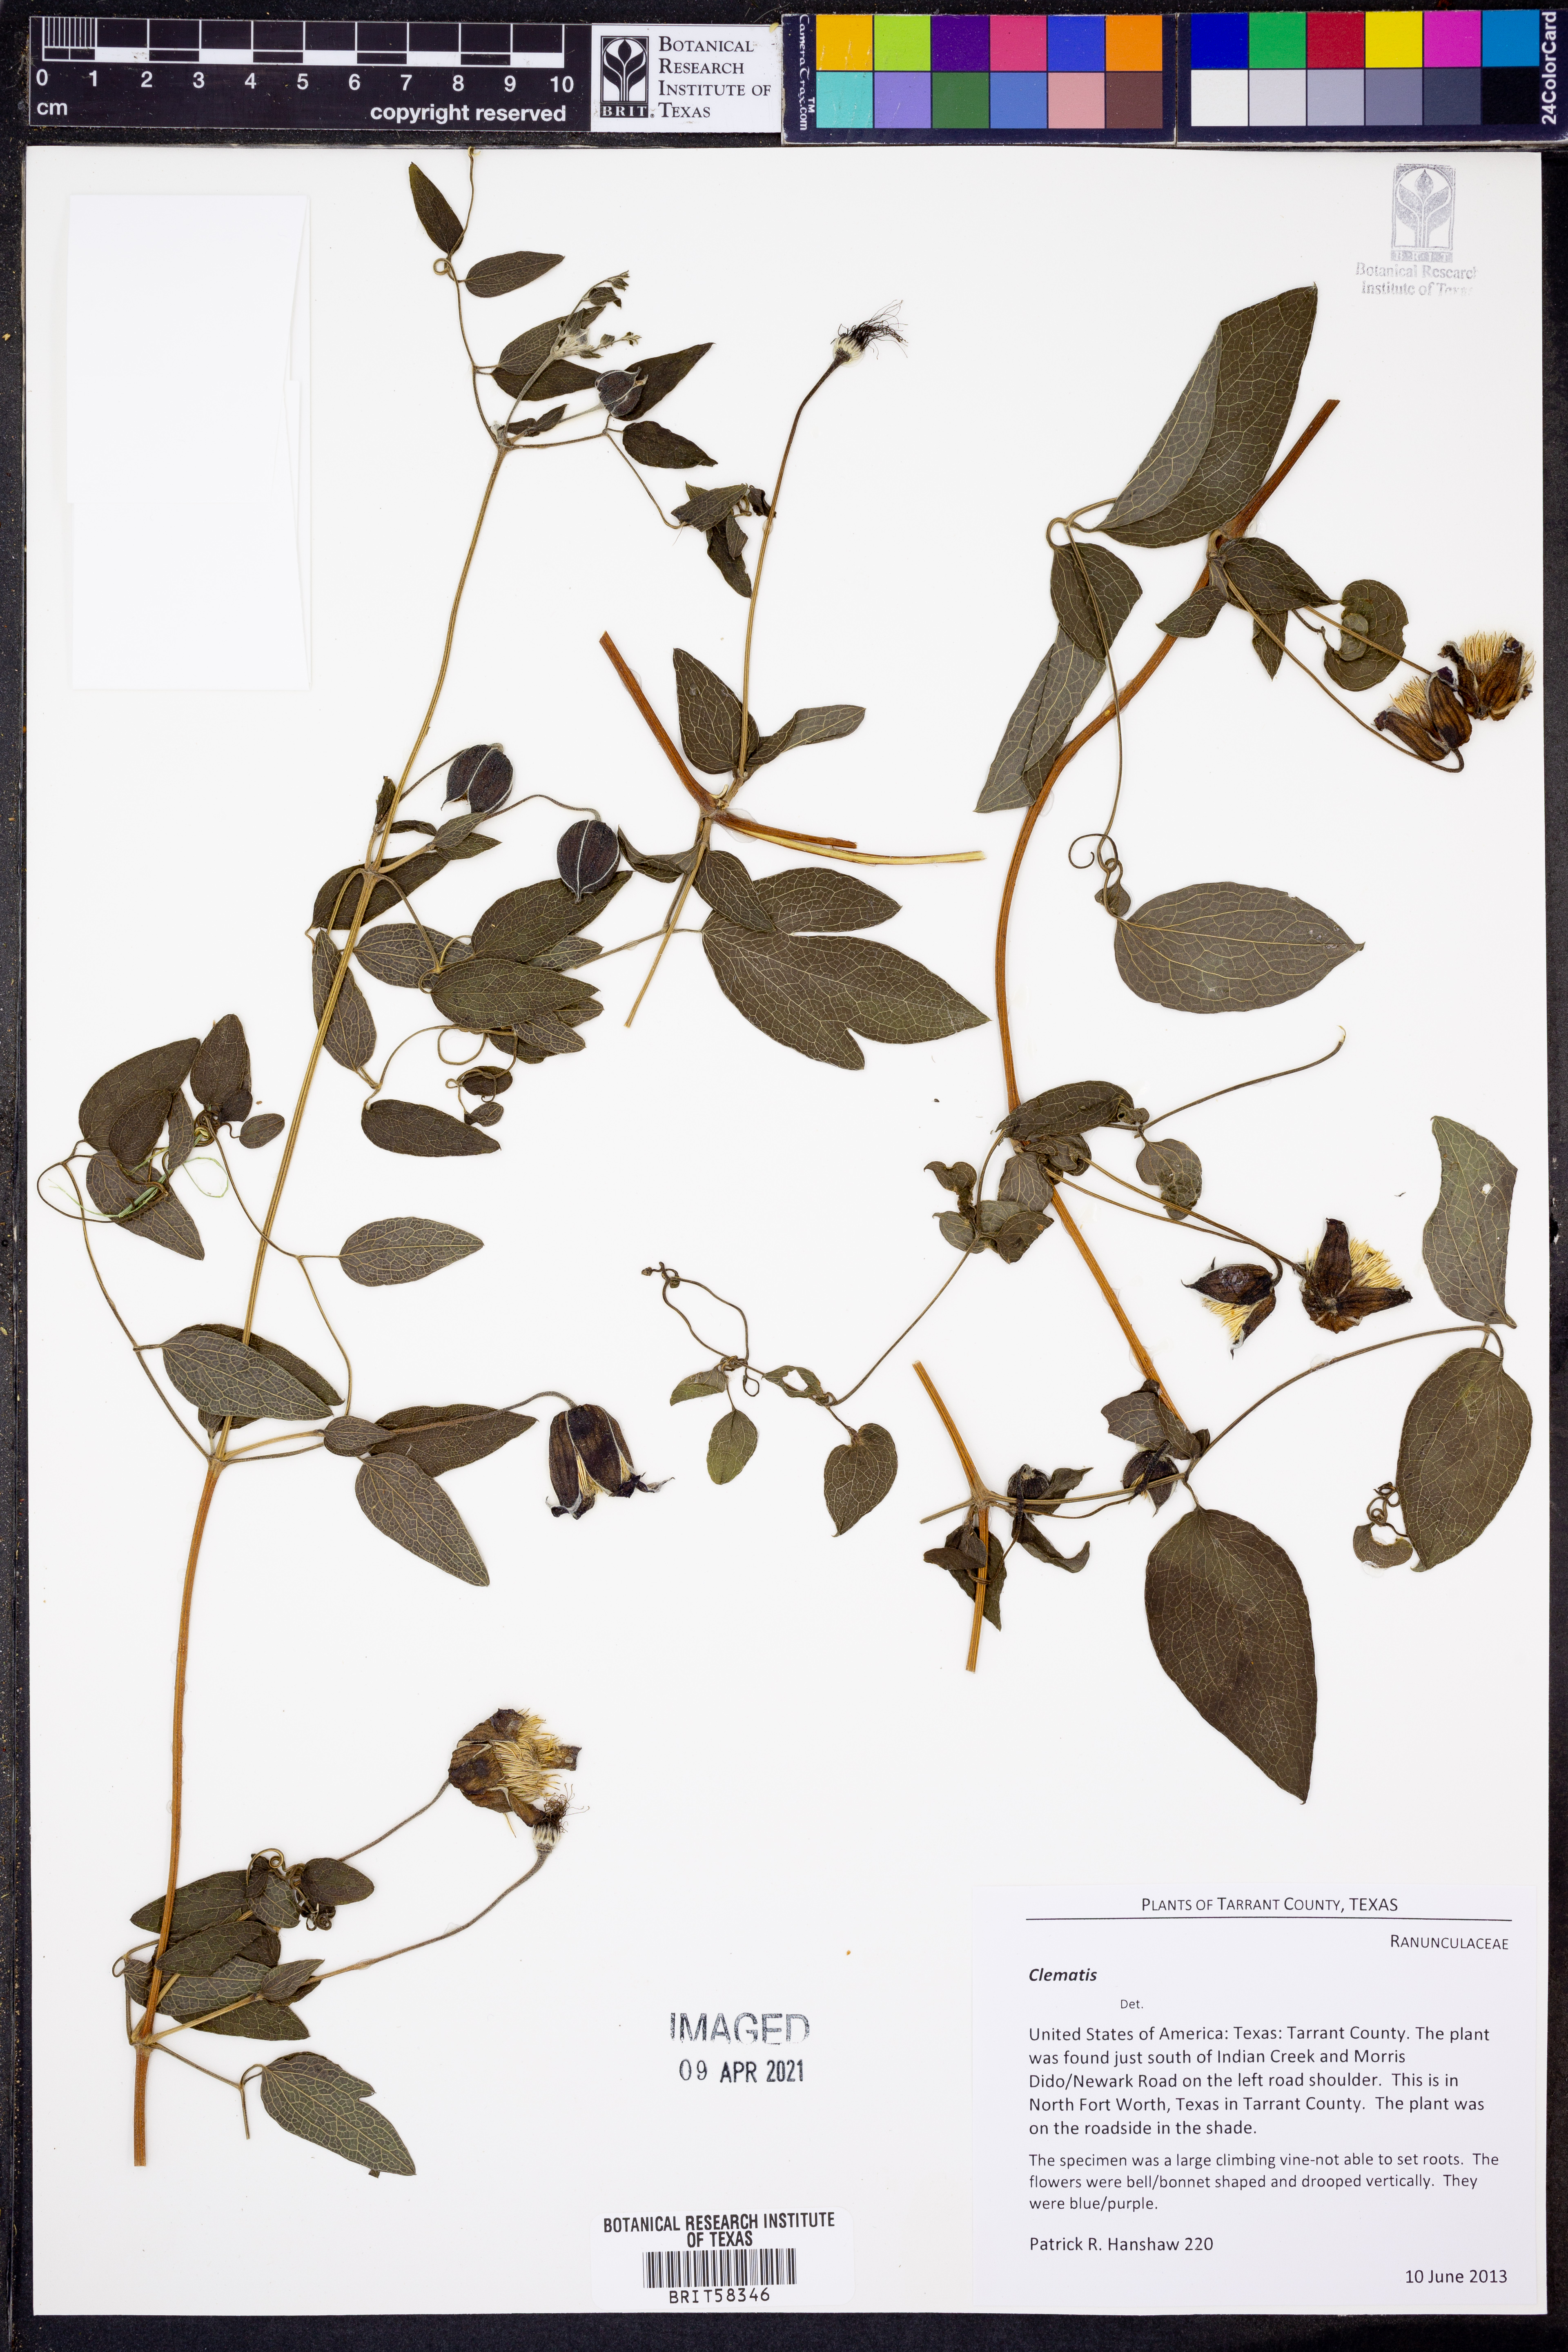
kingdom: Plantae
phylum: Tracheophyta
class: Magnoliopsida
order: Ranunculales
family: Ranunculaceae
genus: Clematis
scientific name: Clematis reticulata
